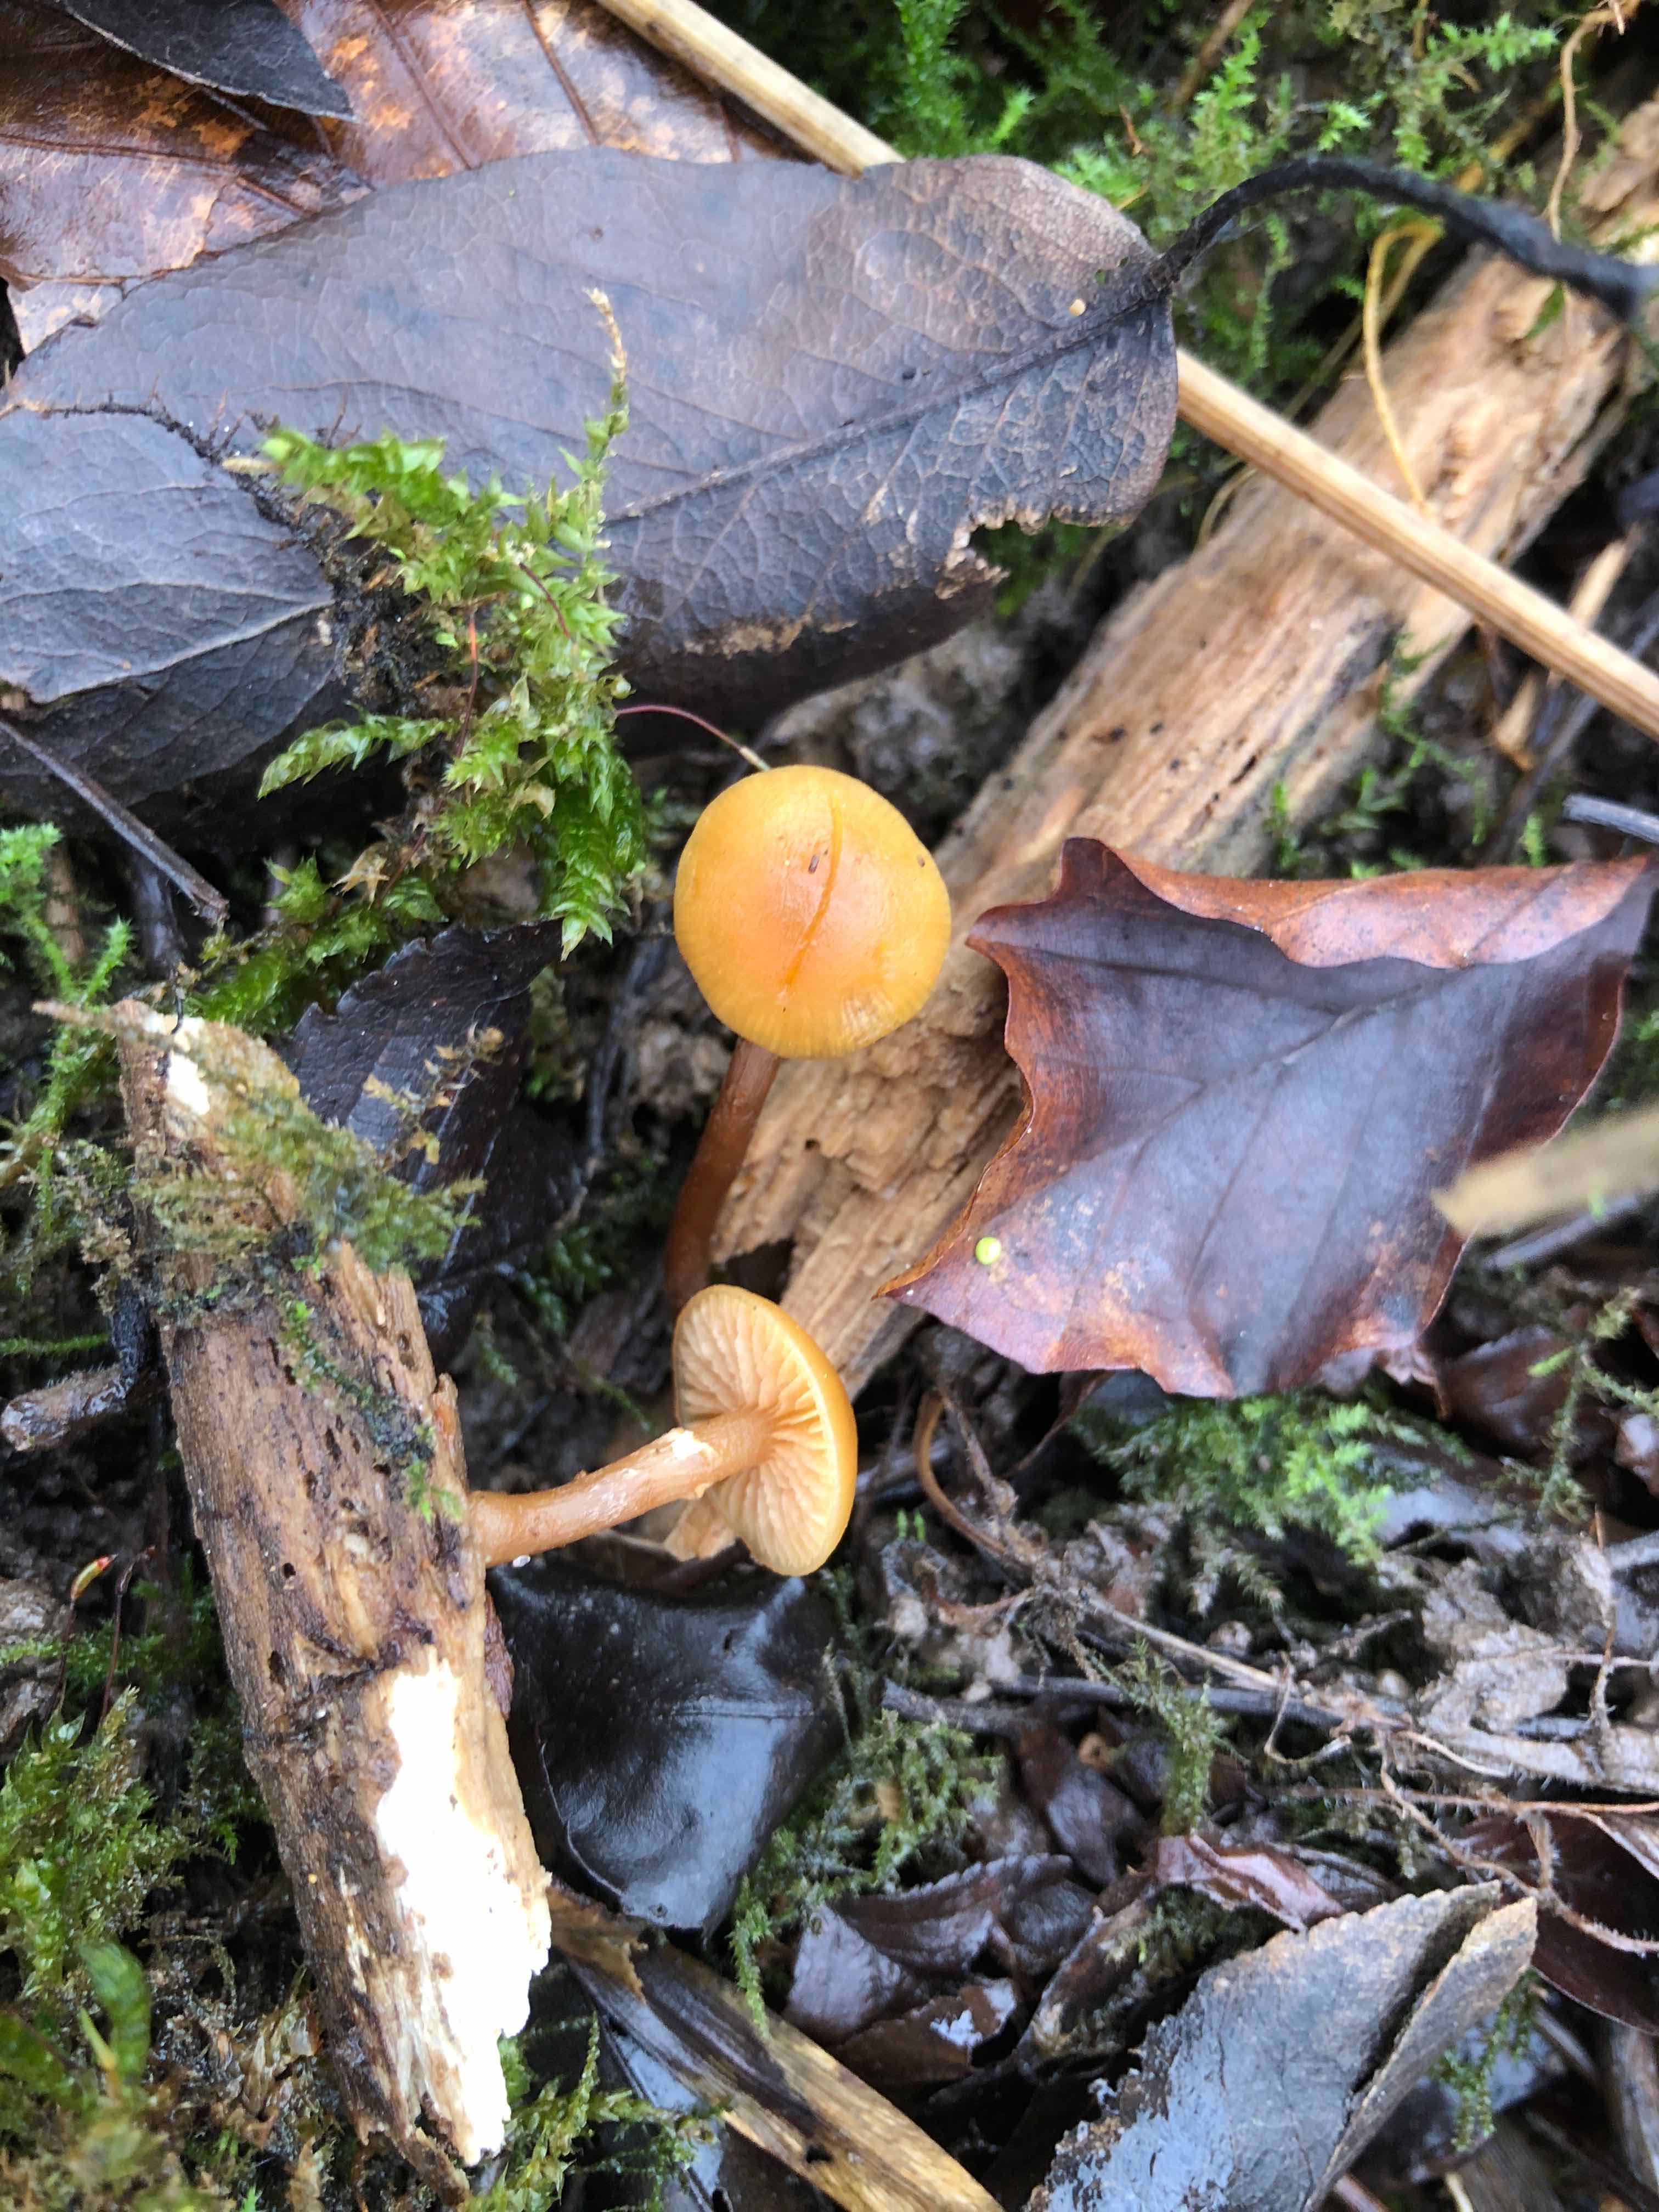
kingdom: Fungi
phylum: Basidiomycota
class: Agaricomycetes
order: Agaricales
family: Hymenogastraceae
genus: Galerina
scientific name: Galerina marginata
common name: randbæltet hjelmhat
